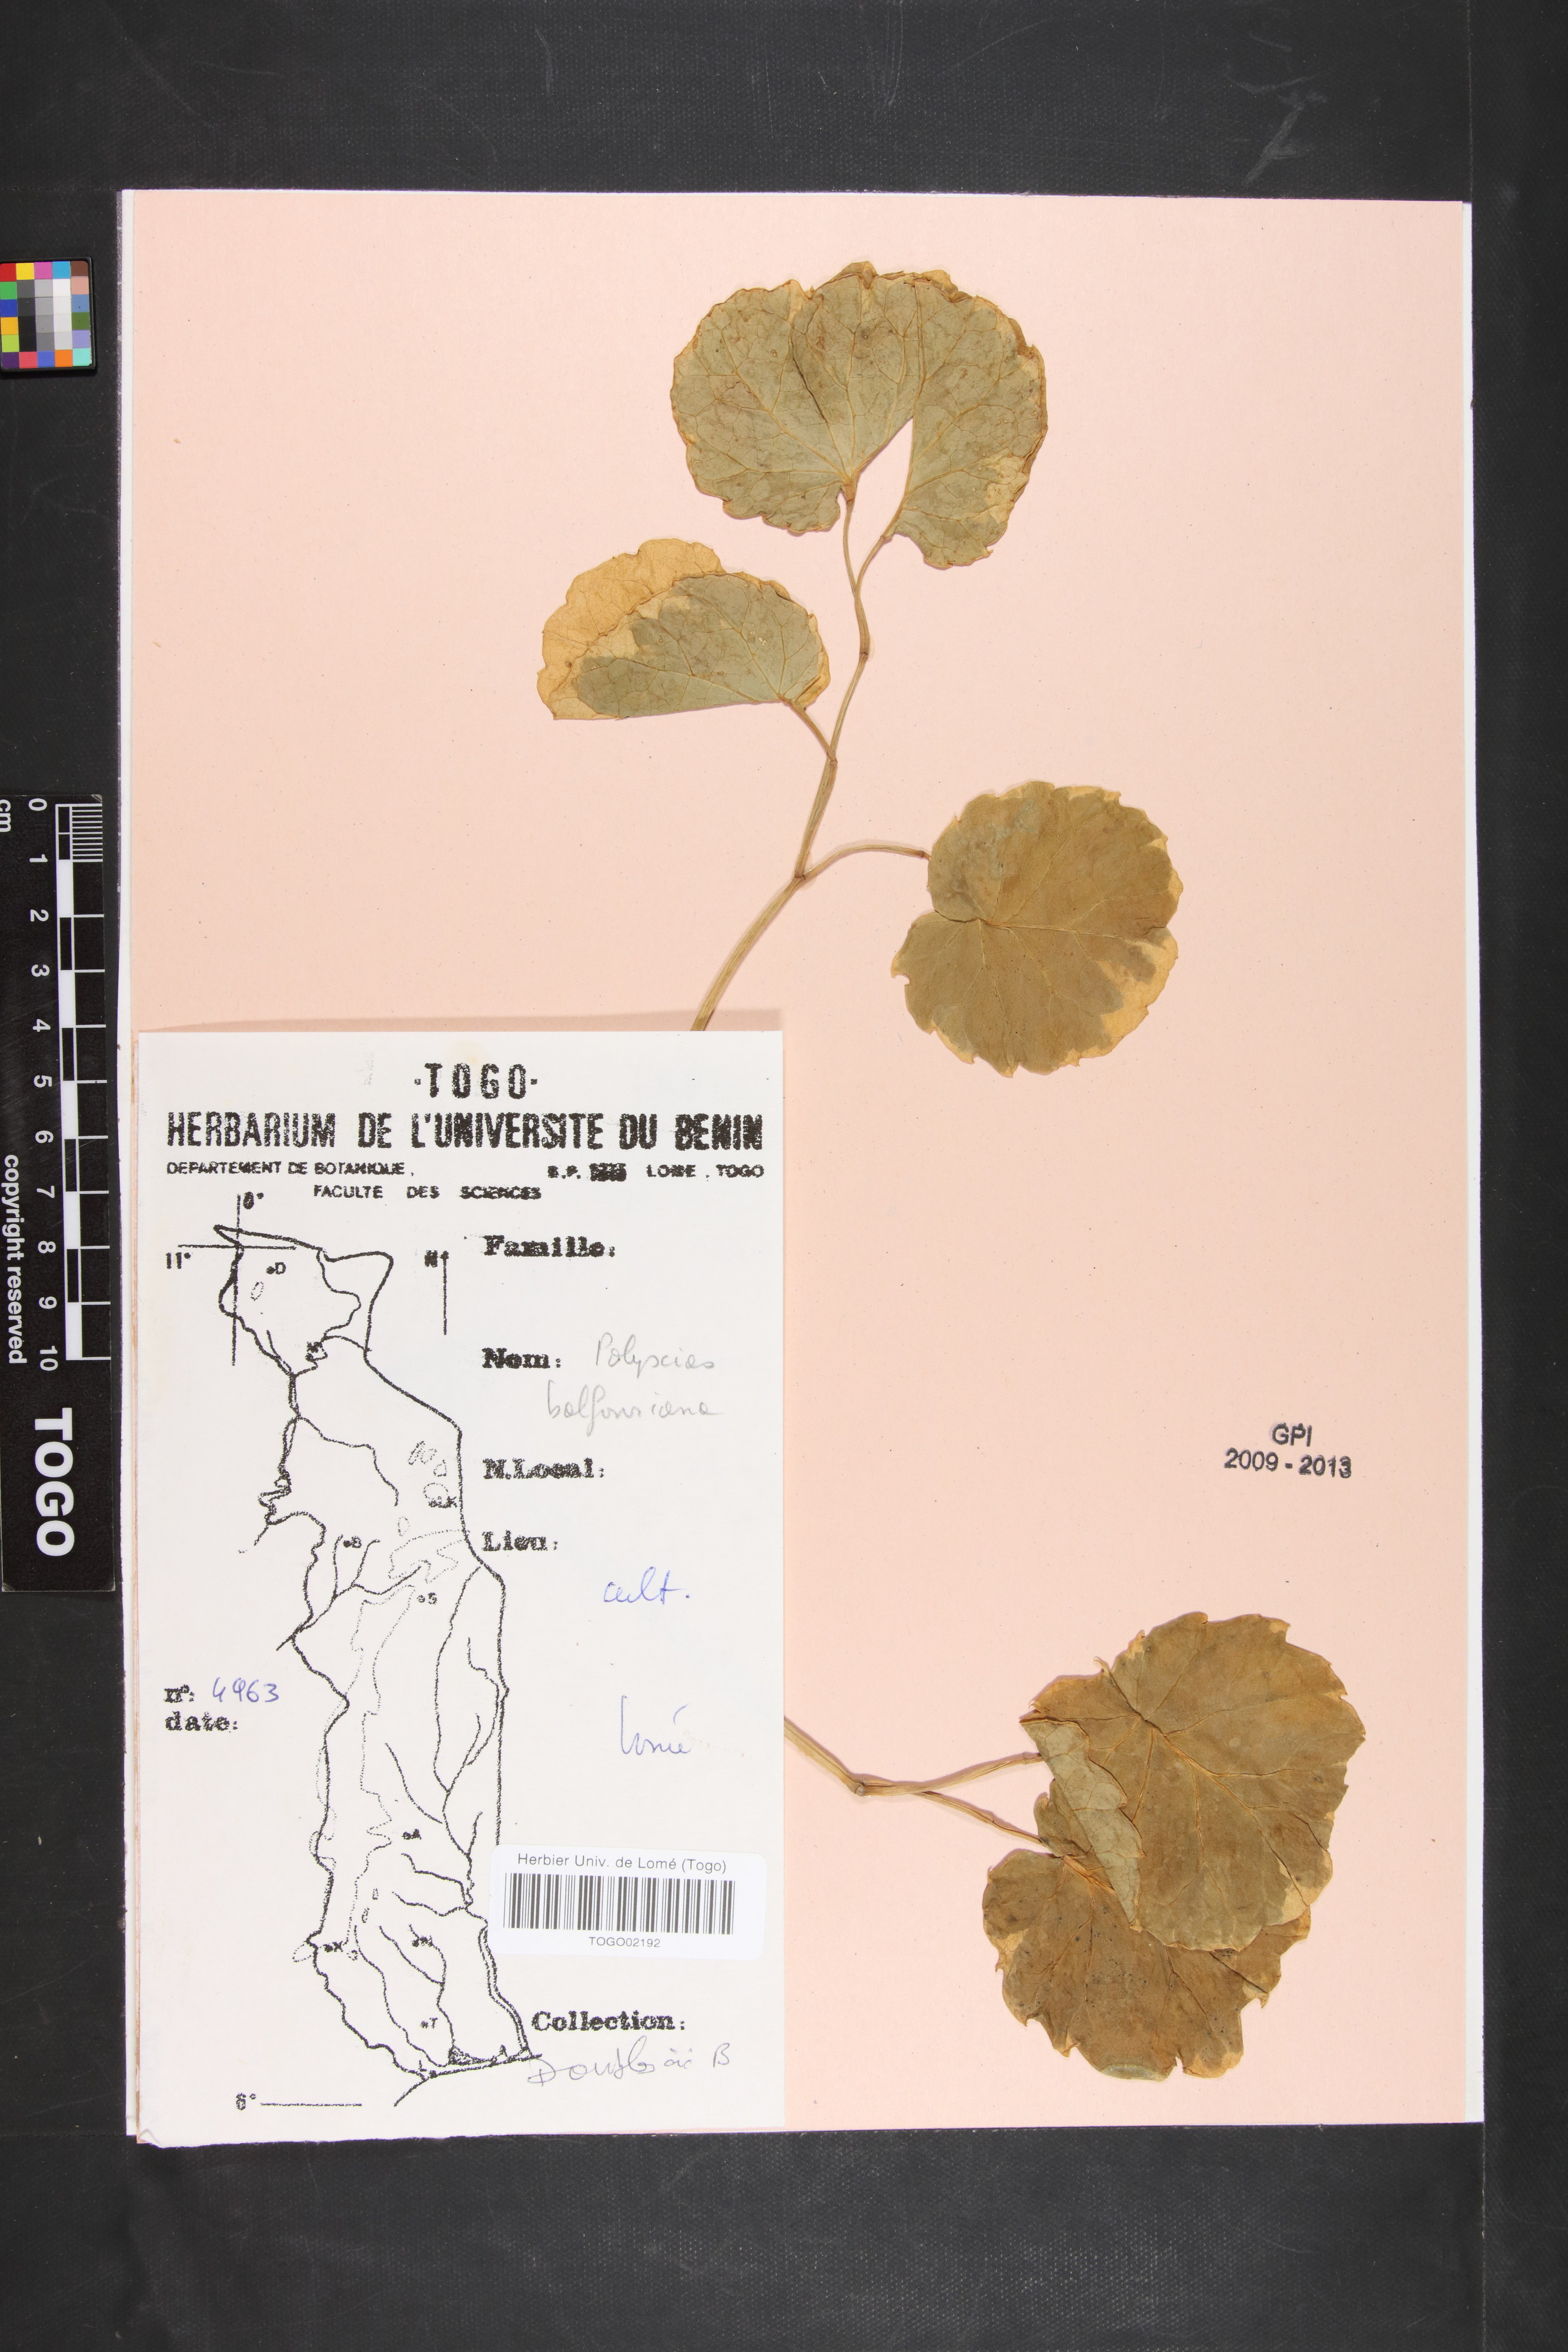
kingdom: Plantae
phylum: Tracheophyta
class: Magnoliopsida
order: Apiales
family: Araliaceae
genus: Polyscias
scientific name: Polyscias balfouriana
